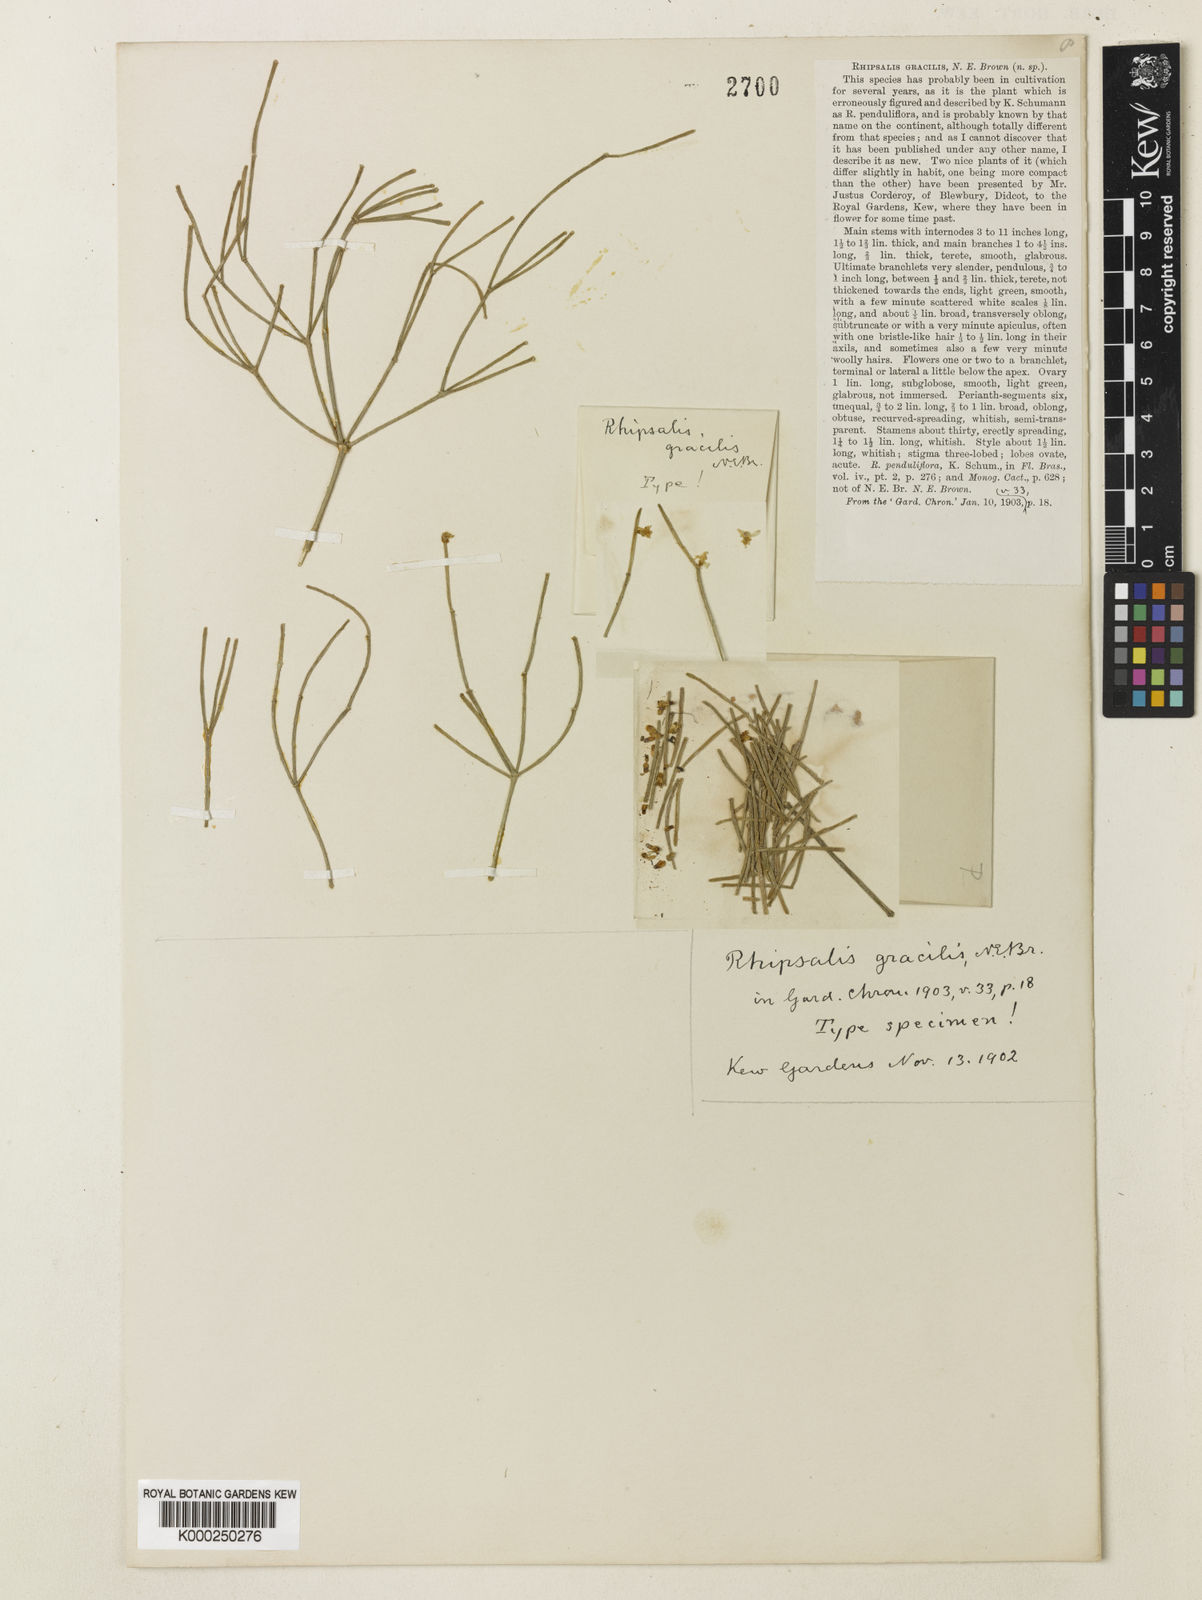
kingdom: Plantae
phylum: Tracheophyta
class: Magnoliopsida
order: Caryophyllales
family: Cactaceae
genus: Rhipsalis
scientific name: Rhipsalis teres
